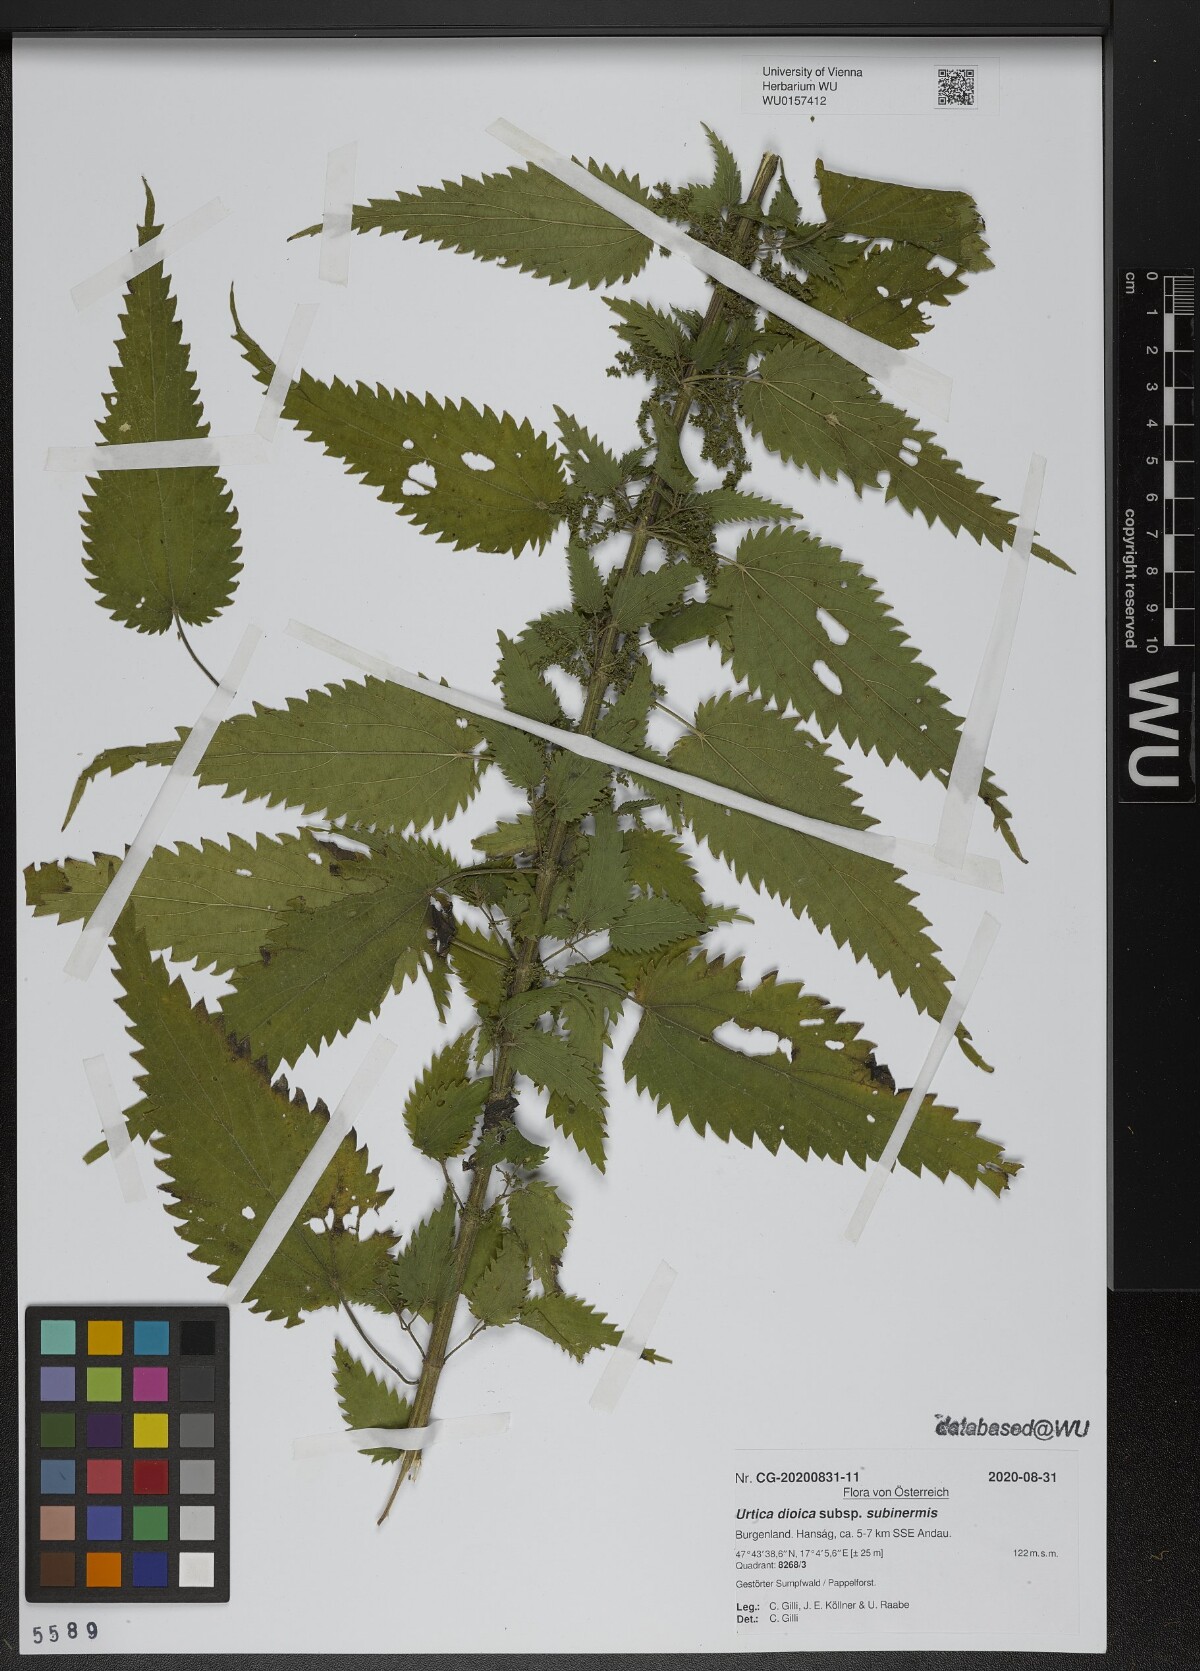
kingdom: Plantae
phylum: Tracheophyta
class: Magnoliopsida
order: Rosales
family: Urticaceae
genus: Urtica
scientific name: Urtica subinermis
